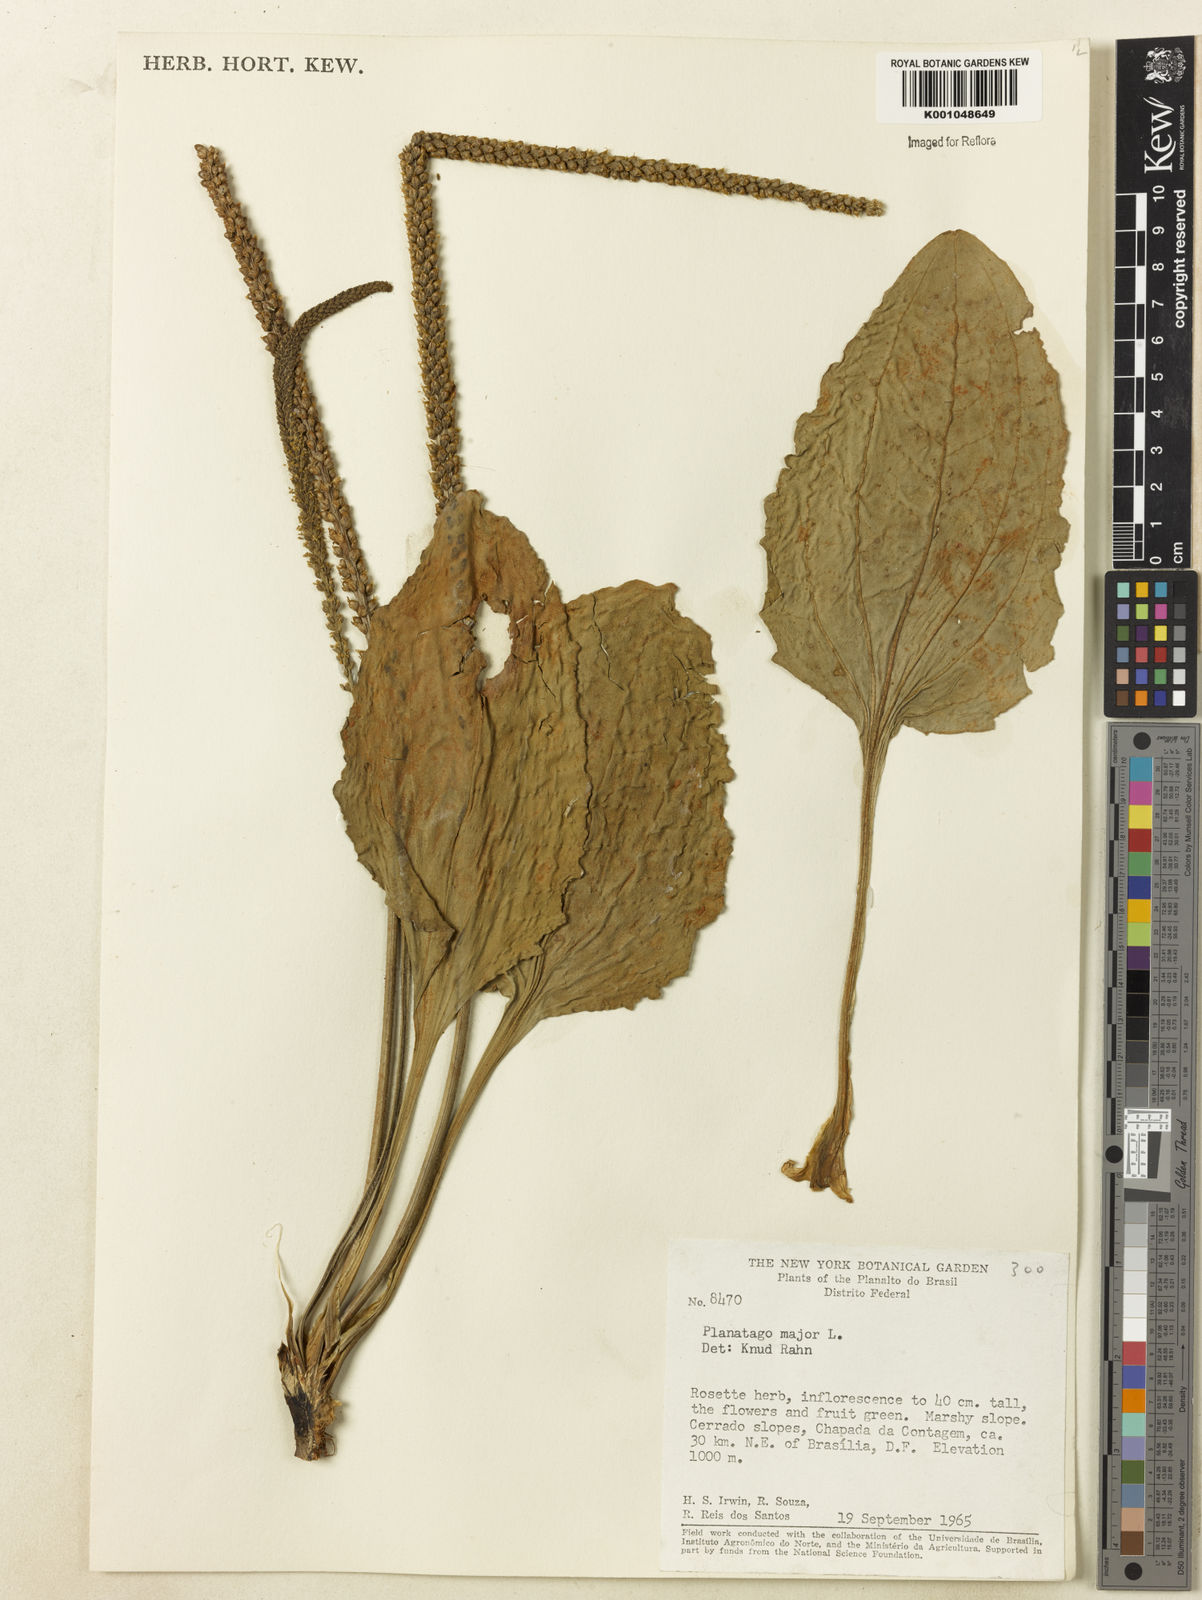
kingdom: Plantae
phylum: Tracheophyta
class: Magnoliopsida
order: Lamiales
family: Plantaginaceae
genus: Plantago
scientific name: Plantago major
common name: Common plantain
